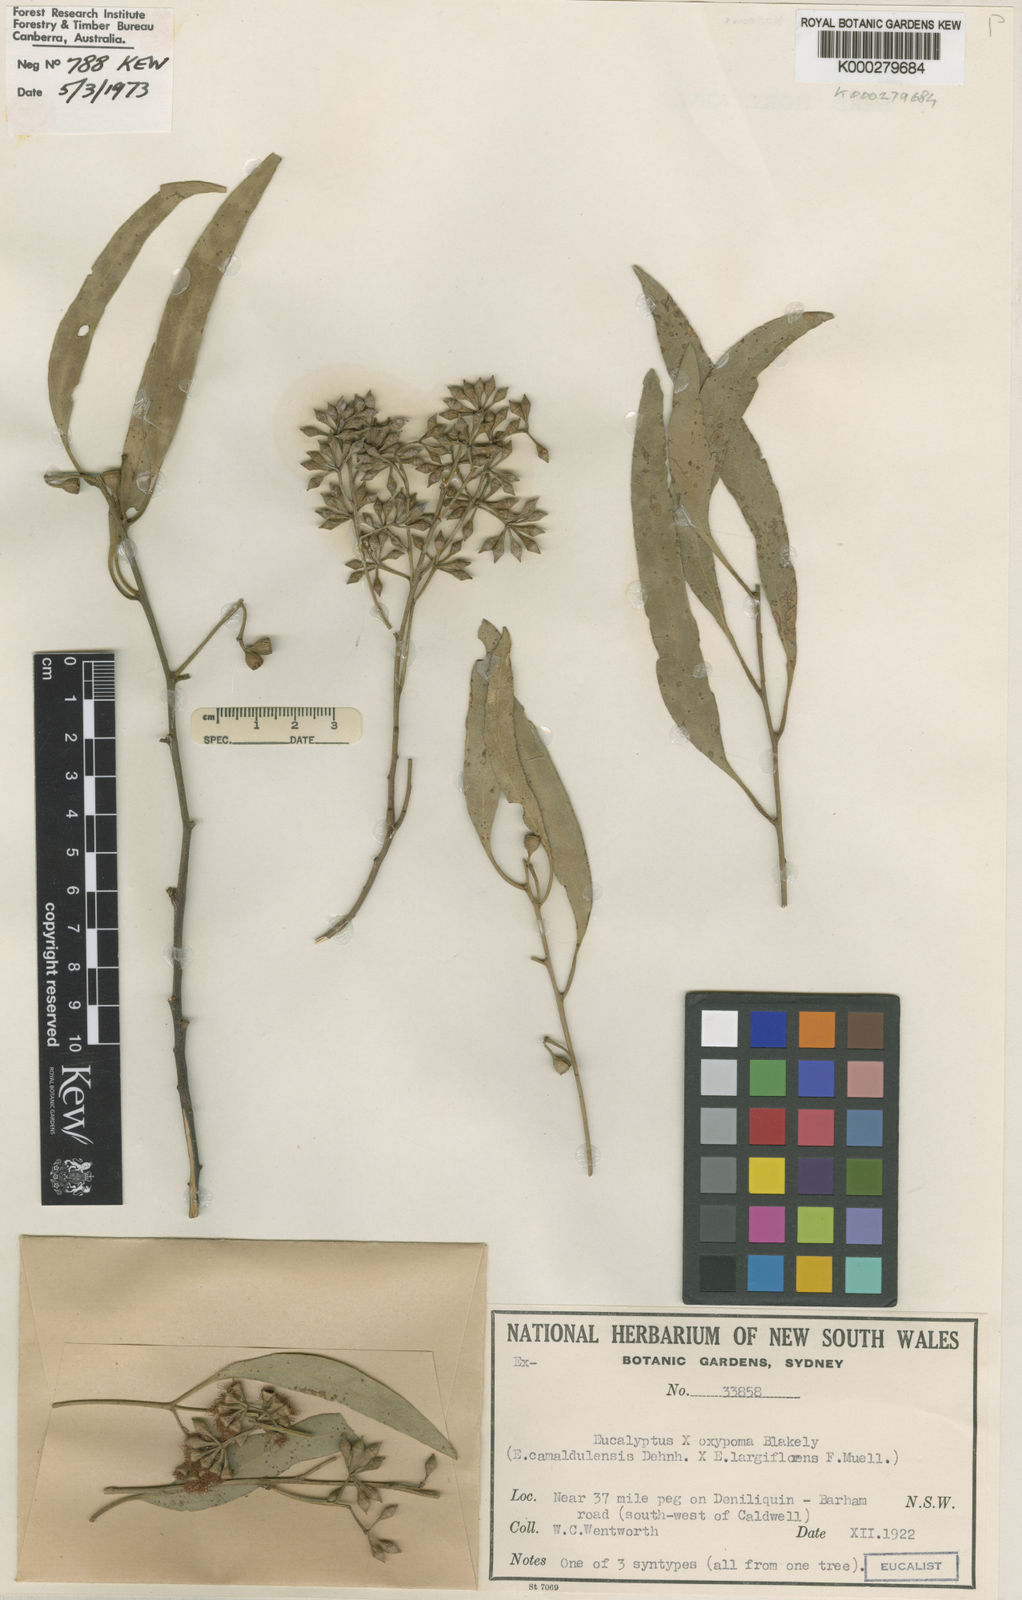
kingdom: Plantae
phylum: Tracheophyta
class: Magnoliopsida
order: Myrtales
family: Myrtaceae
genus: Eucalyptus
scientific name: Eucalyptus camaldulensis
